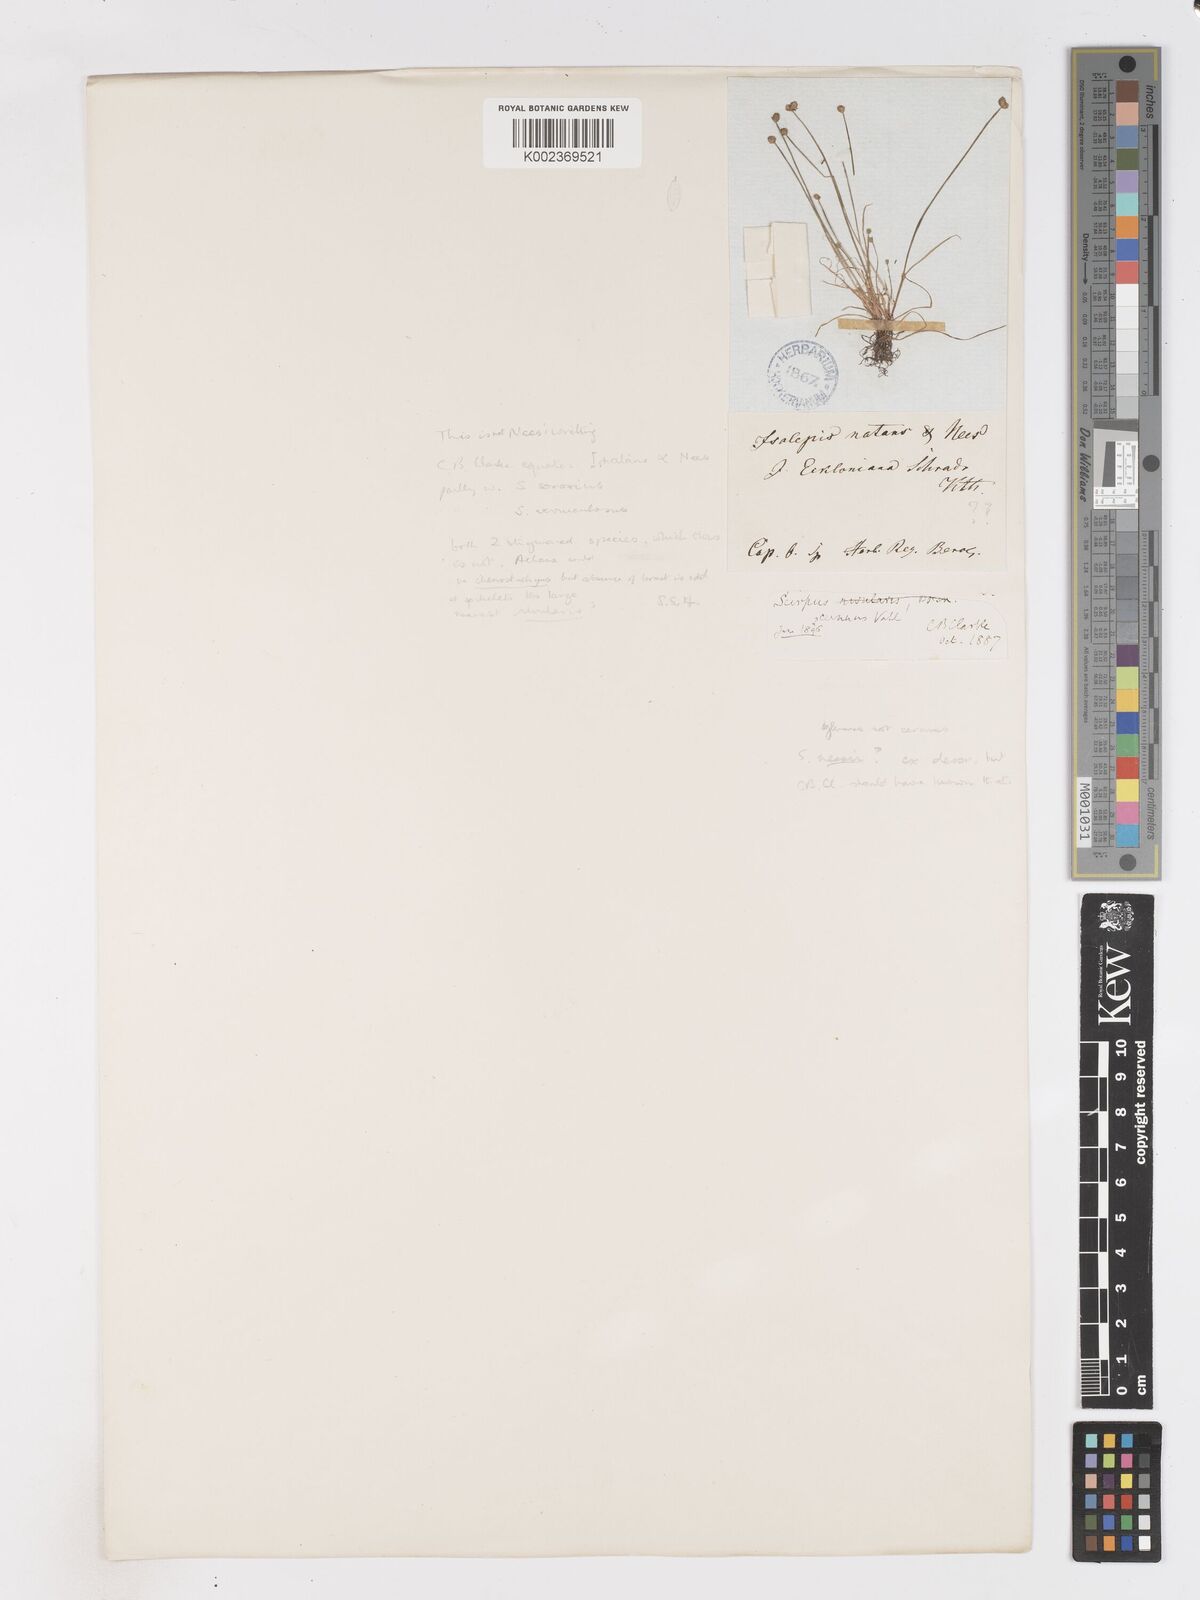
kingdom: Plantae
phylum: Tracheophyta
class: Liliopsida
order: Poales
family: Cyperaceae
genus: Isolepis
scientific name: Isolepis natans
